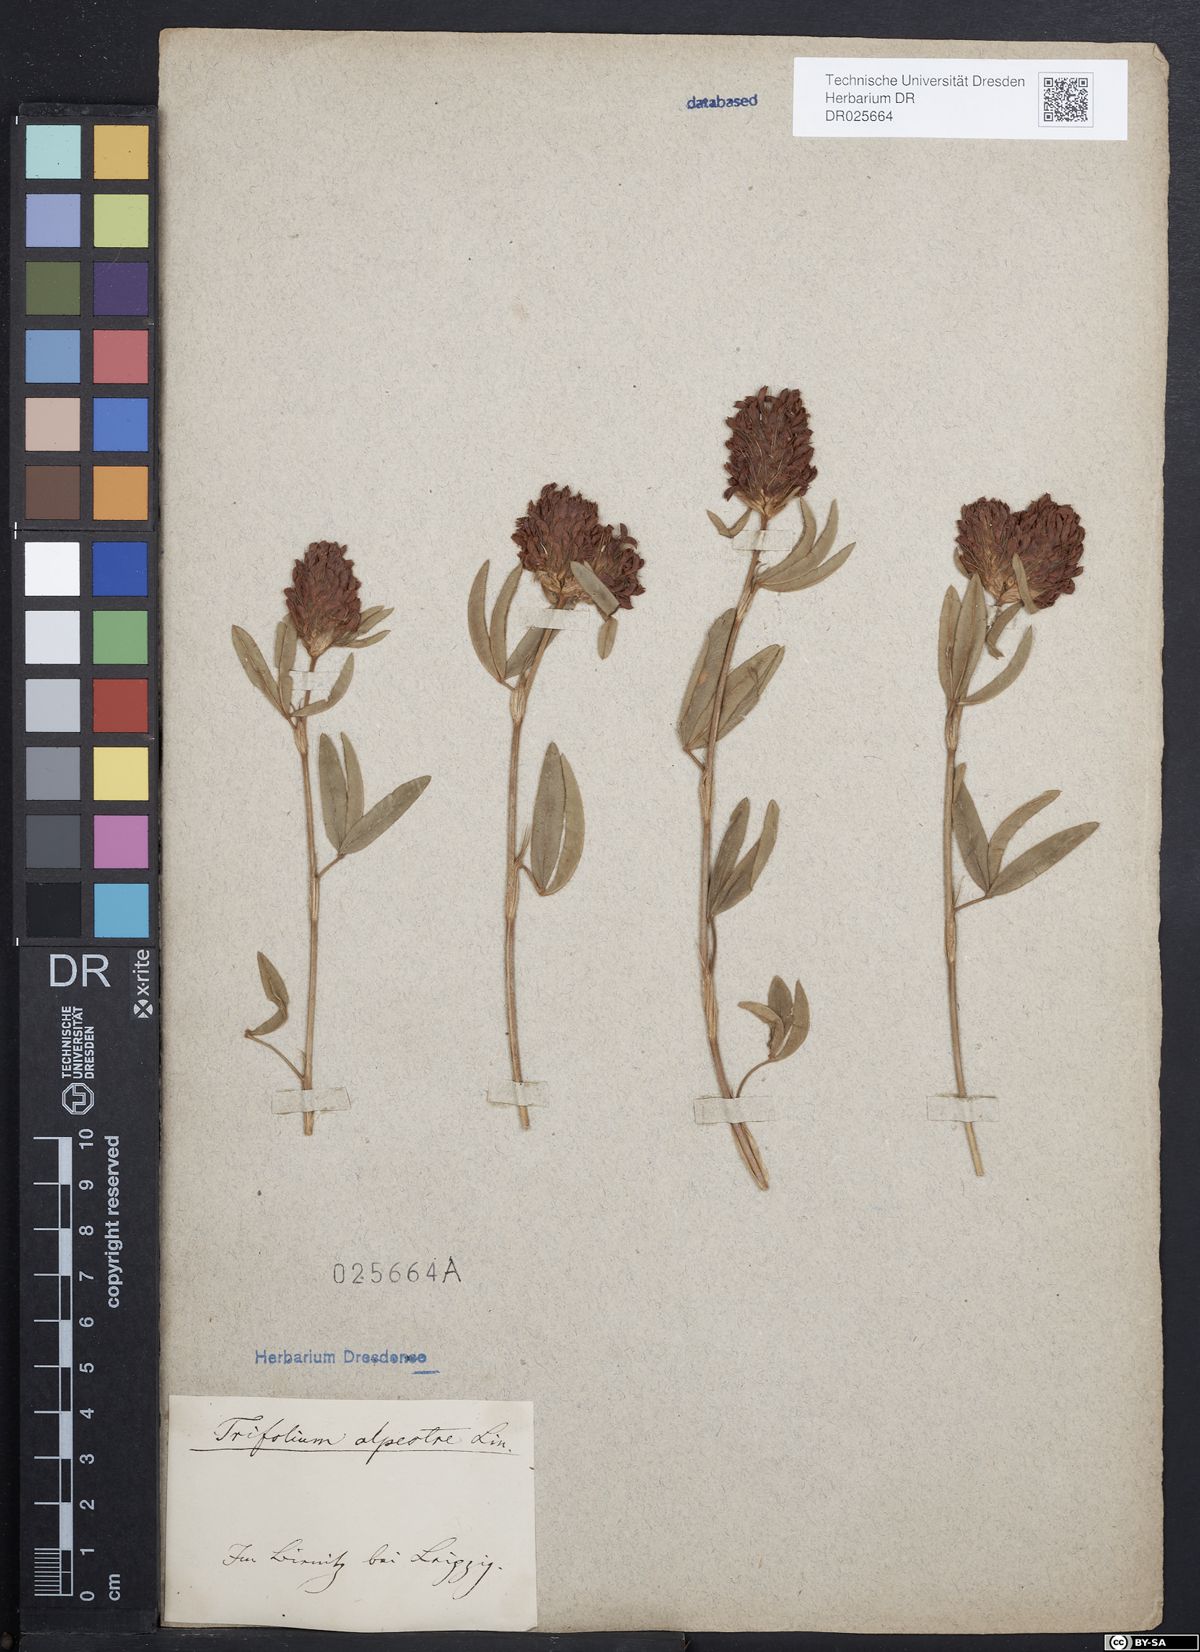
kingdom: Plantae
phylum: Tracheophyta
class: Magnoliopsida
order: Fabales
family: Fabaceae
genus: Trifolium
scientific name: Trifolium alpestre
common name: Owl-head clover
